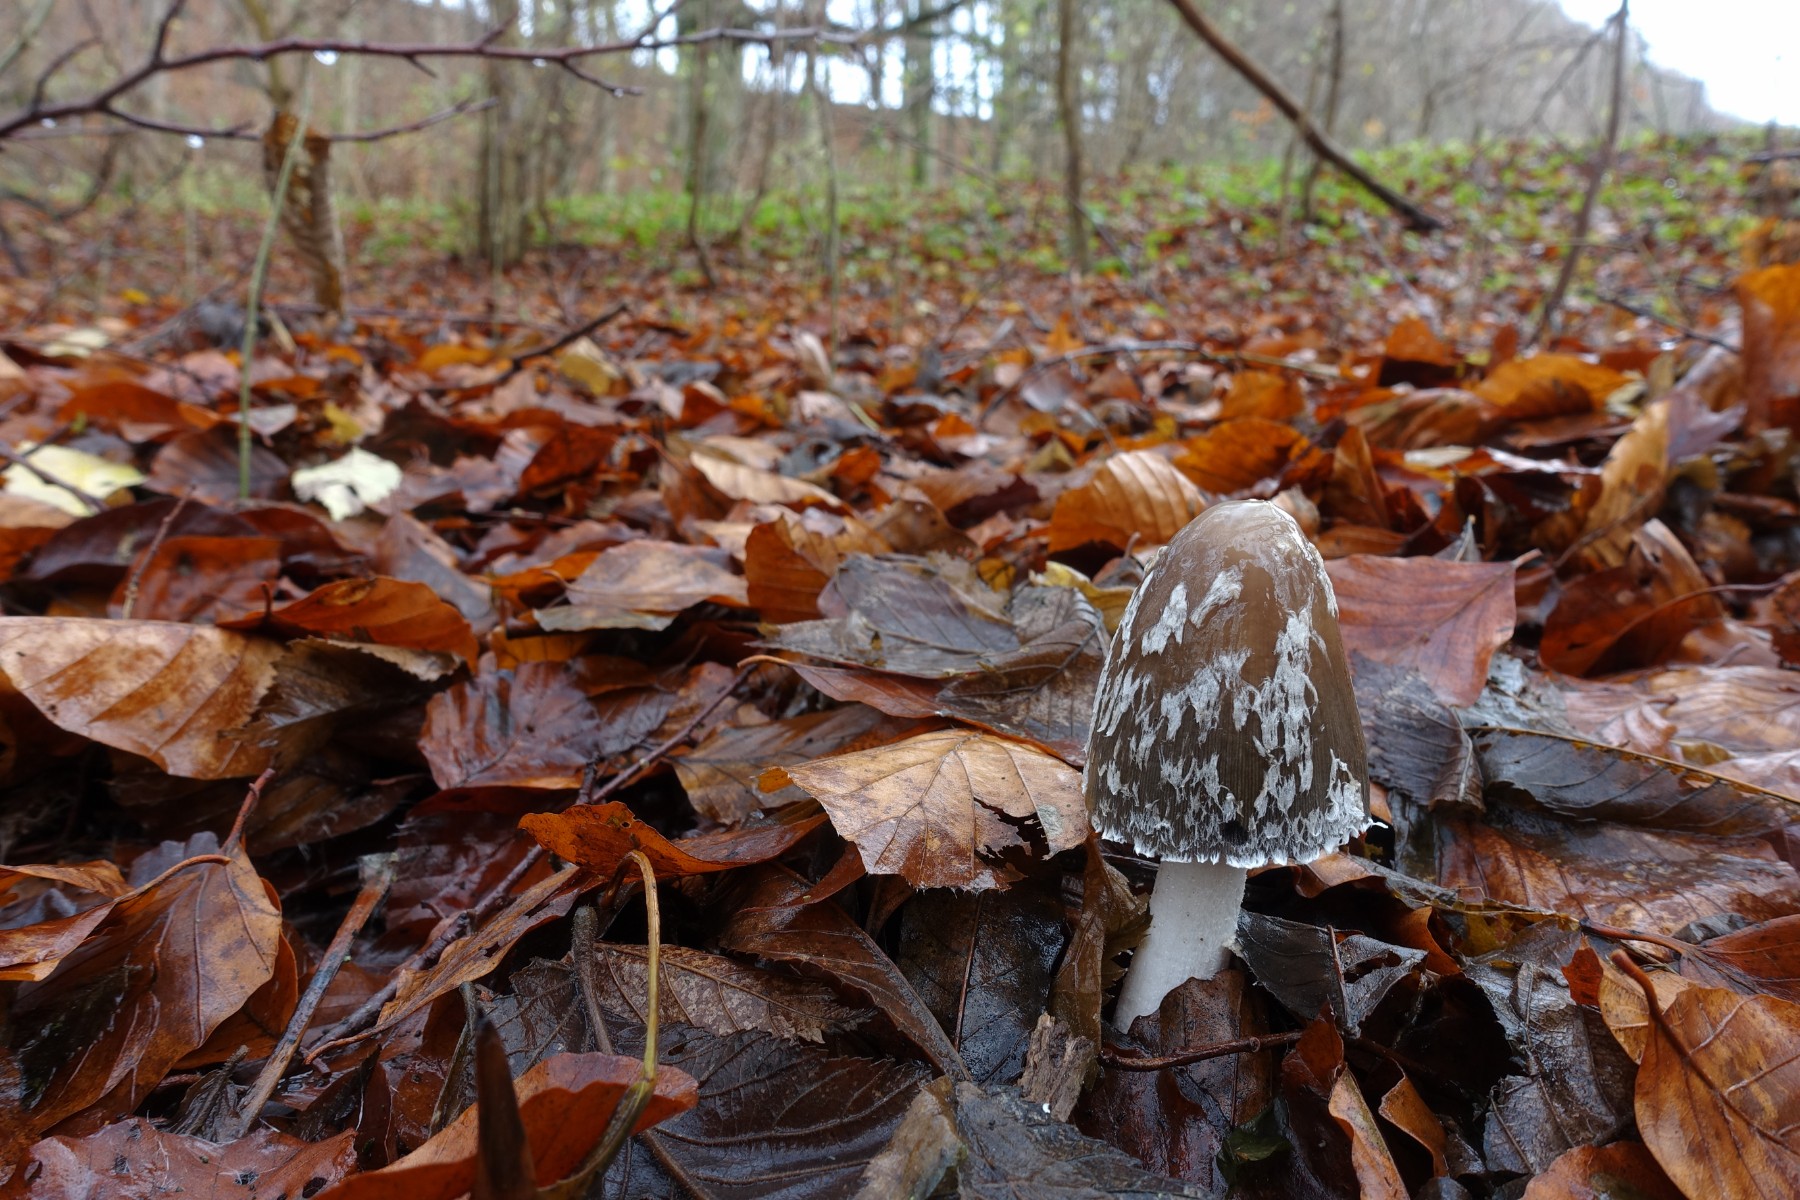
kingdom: Fungi
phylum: Basidiomycota
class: Agaricomycetes
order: Agaricales
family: Psathyrellaceae
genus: Coprinopsis
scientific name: Coprinopsis picacea
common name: skade-blækhat
